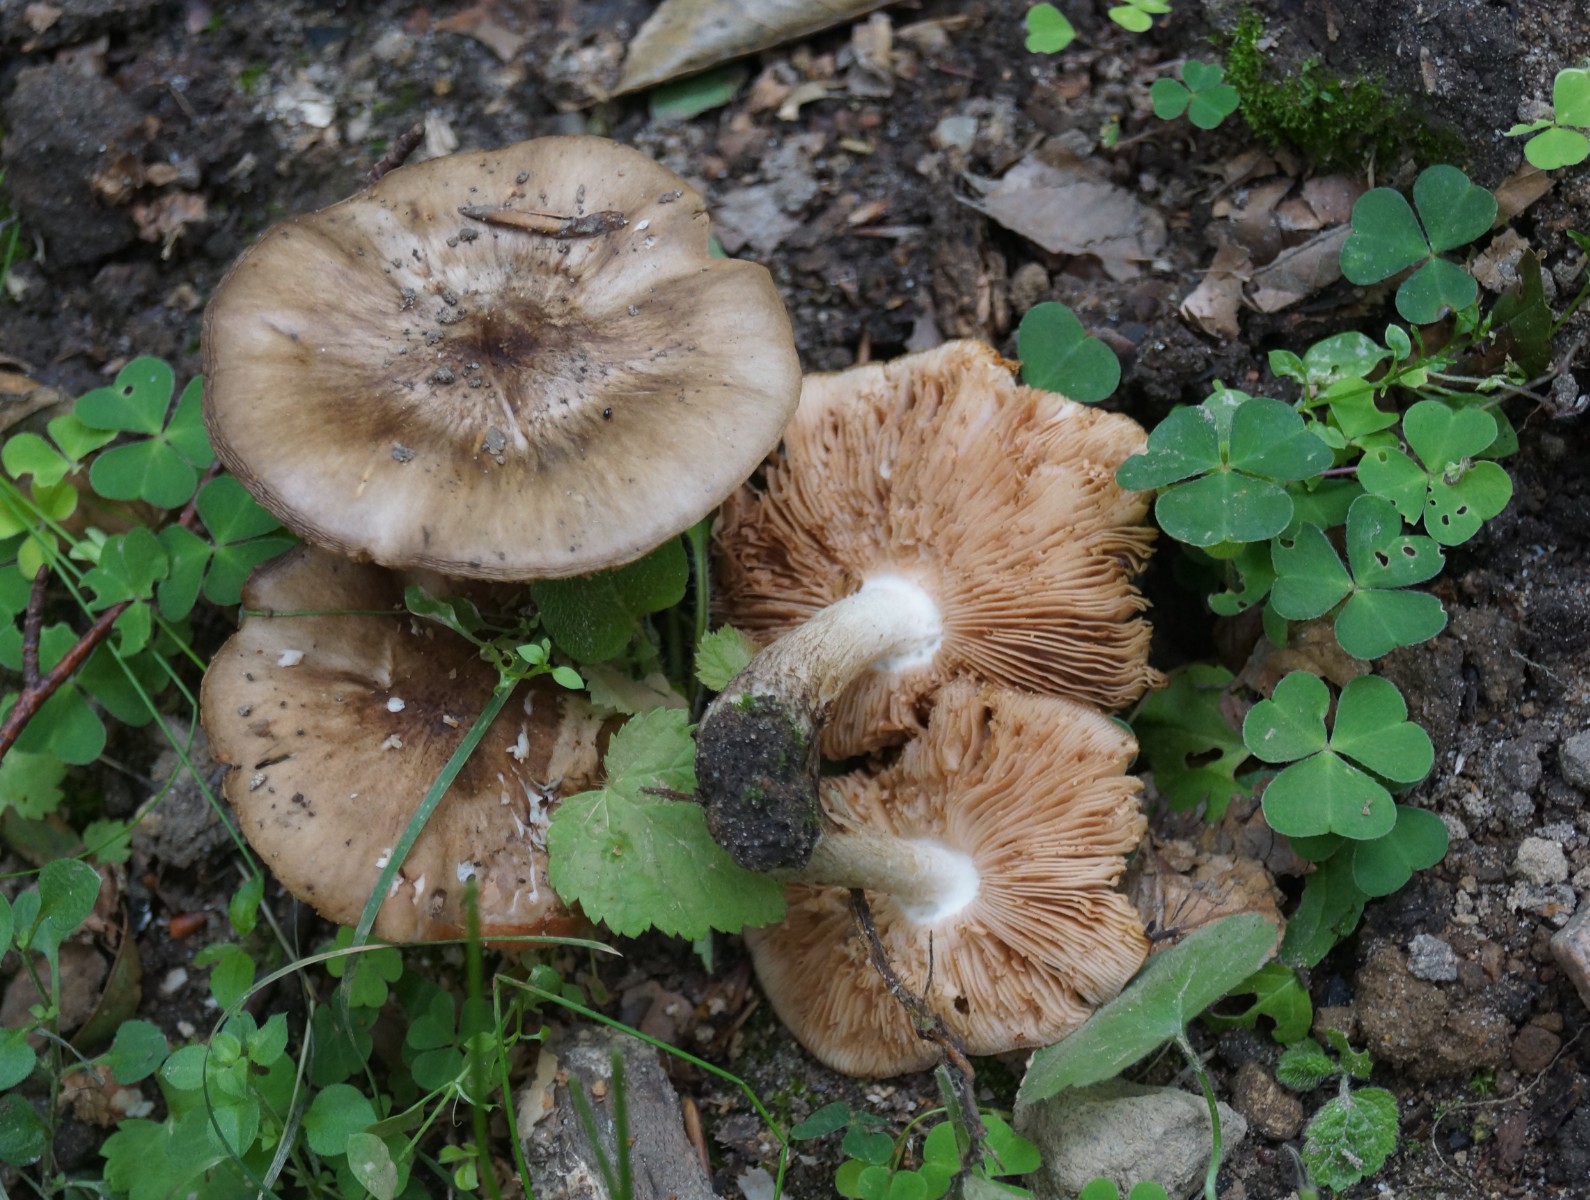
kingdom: Fungi
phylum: Basidiomycota
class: Agaricomycetes
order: Agaricales
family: Pluteaceae
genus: Pluteus
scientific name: Pluteus cervinus
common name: sodfarvet skærmhat
